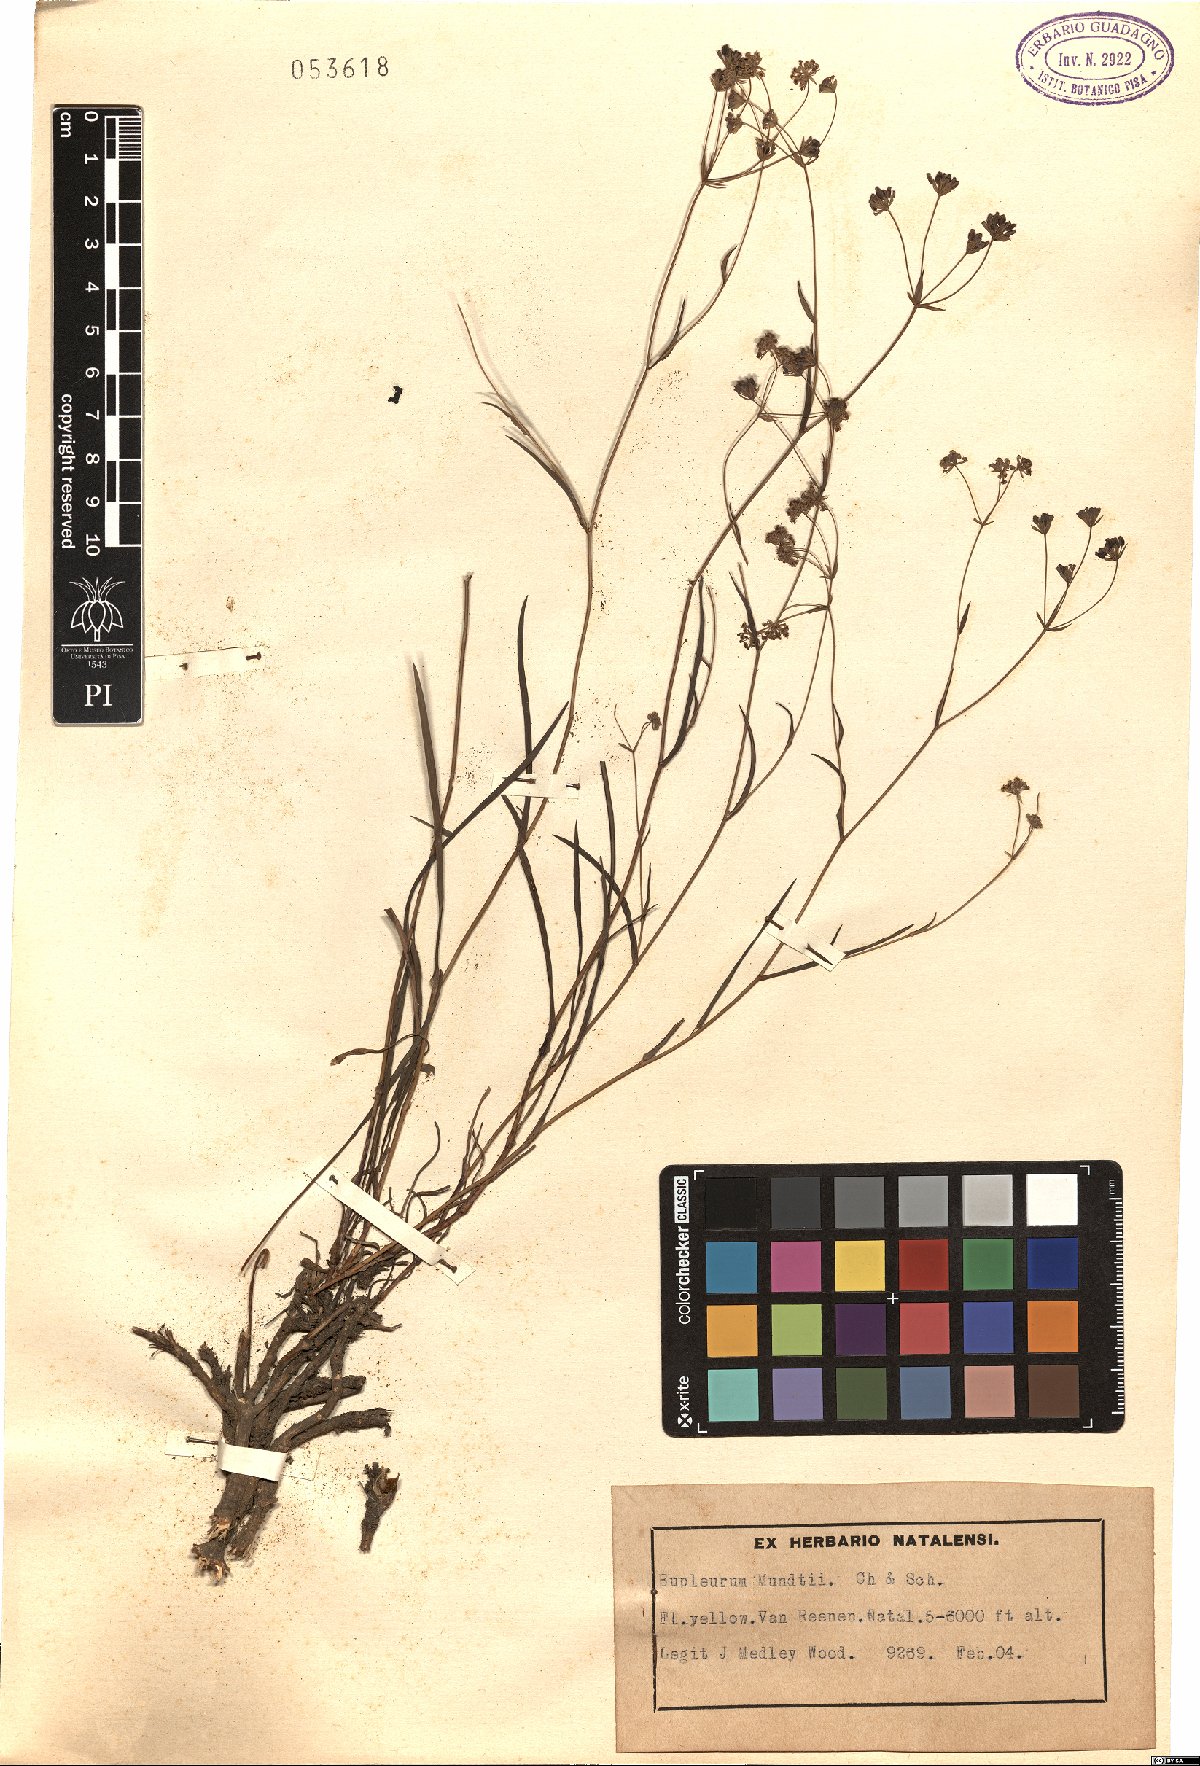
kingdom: Plantae
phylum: Tracheophyta
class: Magnoliopsida
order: Apiales
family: Apiaceae
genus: Bupleurum
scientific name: Bupleurum mundtii
